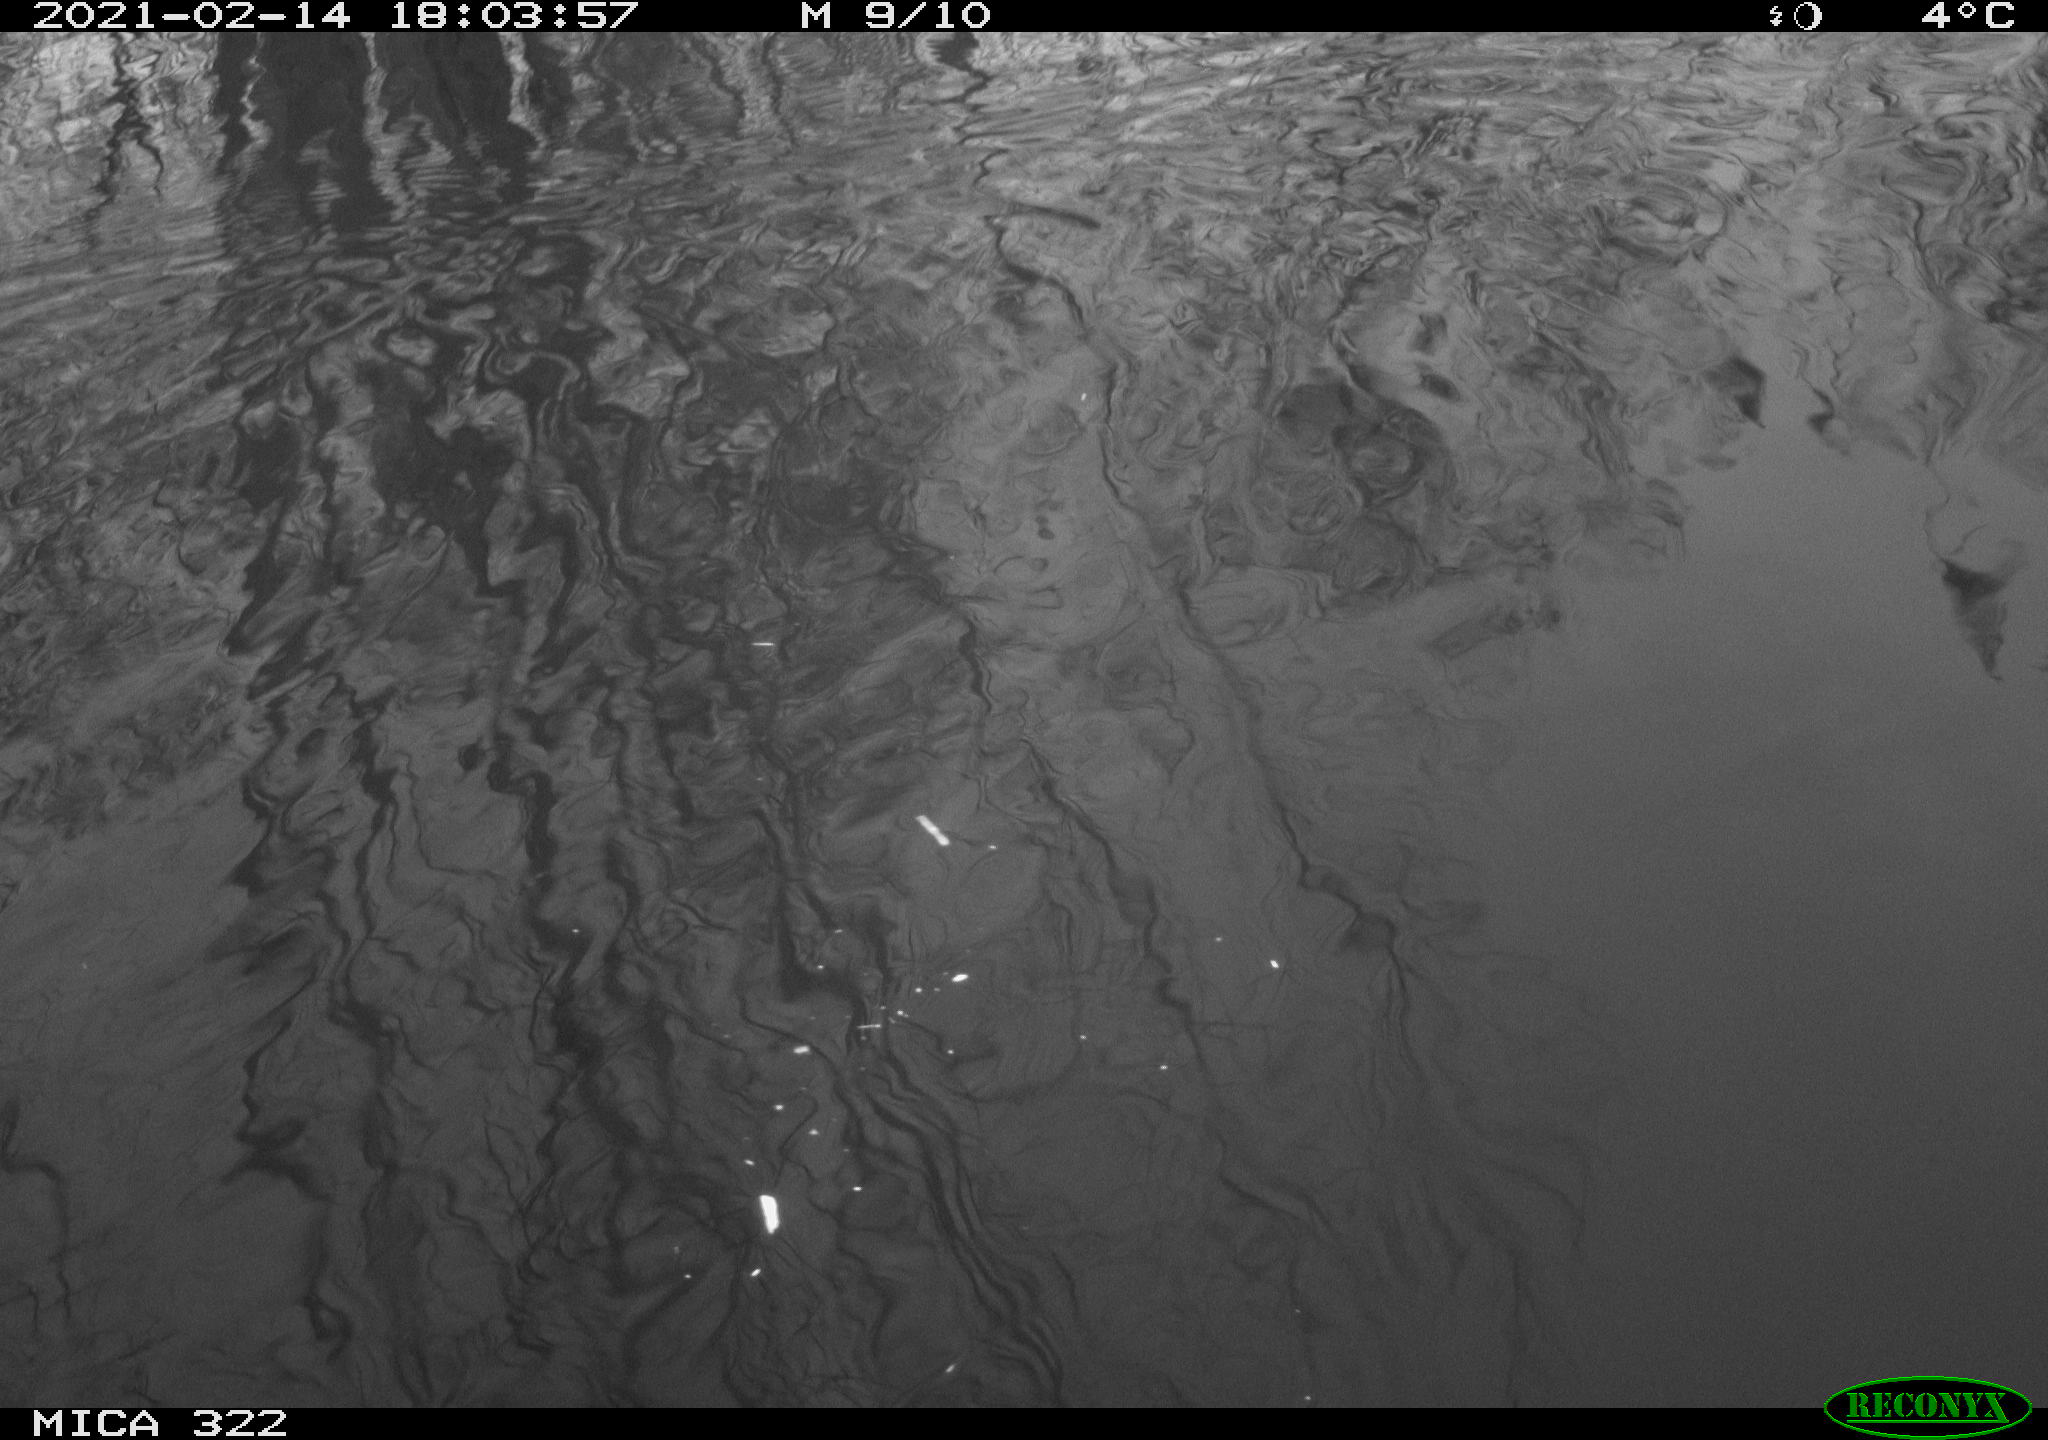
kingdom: Animalia
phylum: Chordata
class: Aves
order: Gruiformes
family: Rallidae
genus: Fulica
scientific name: Fulica atra
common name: Eurasian coot
